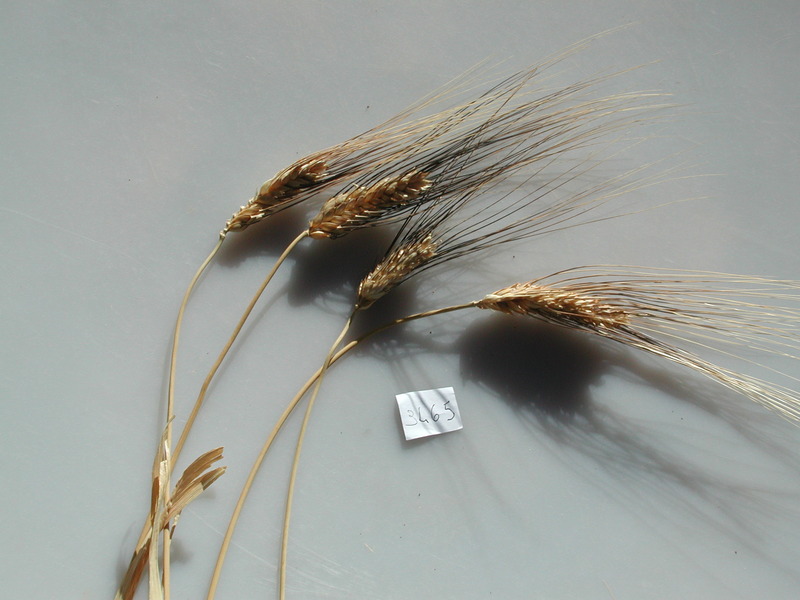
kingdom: Plantae
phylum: Tracheophyta
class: Liliopsida
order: Poales
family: Poaceae
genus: Triticum
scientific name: Triticum
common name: Wheat
